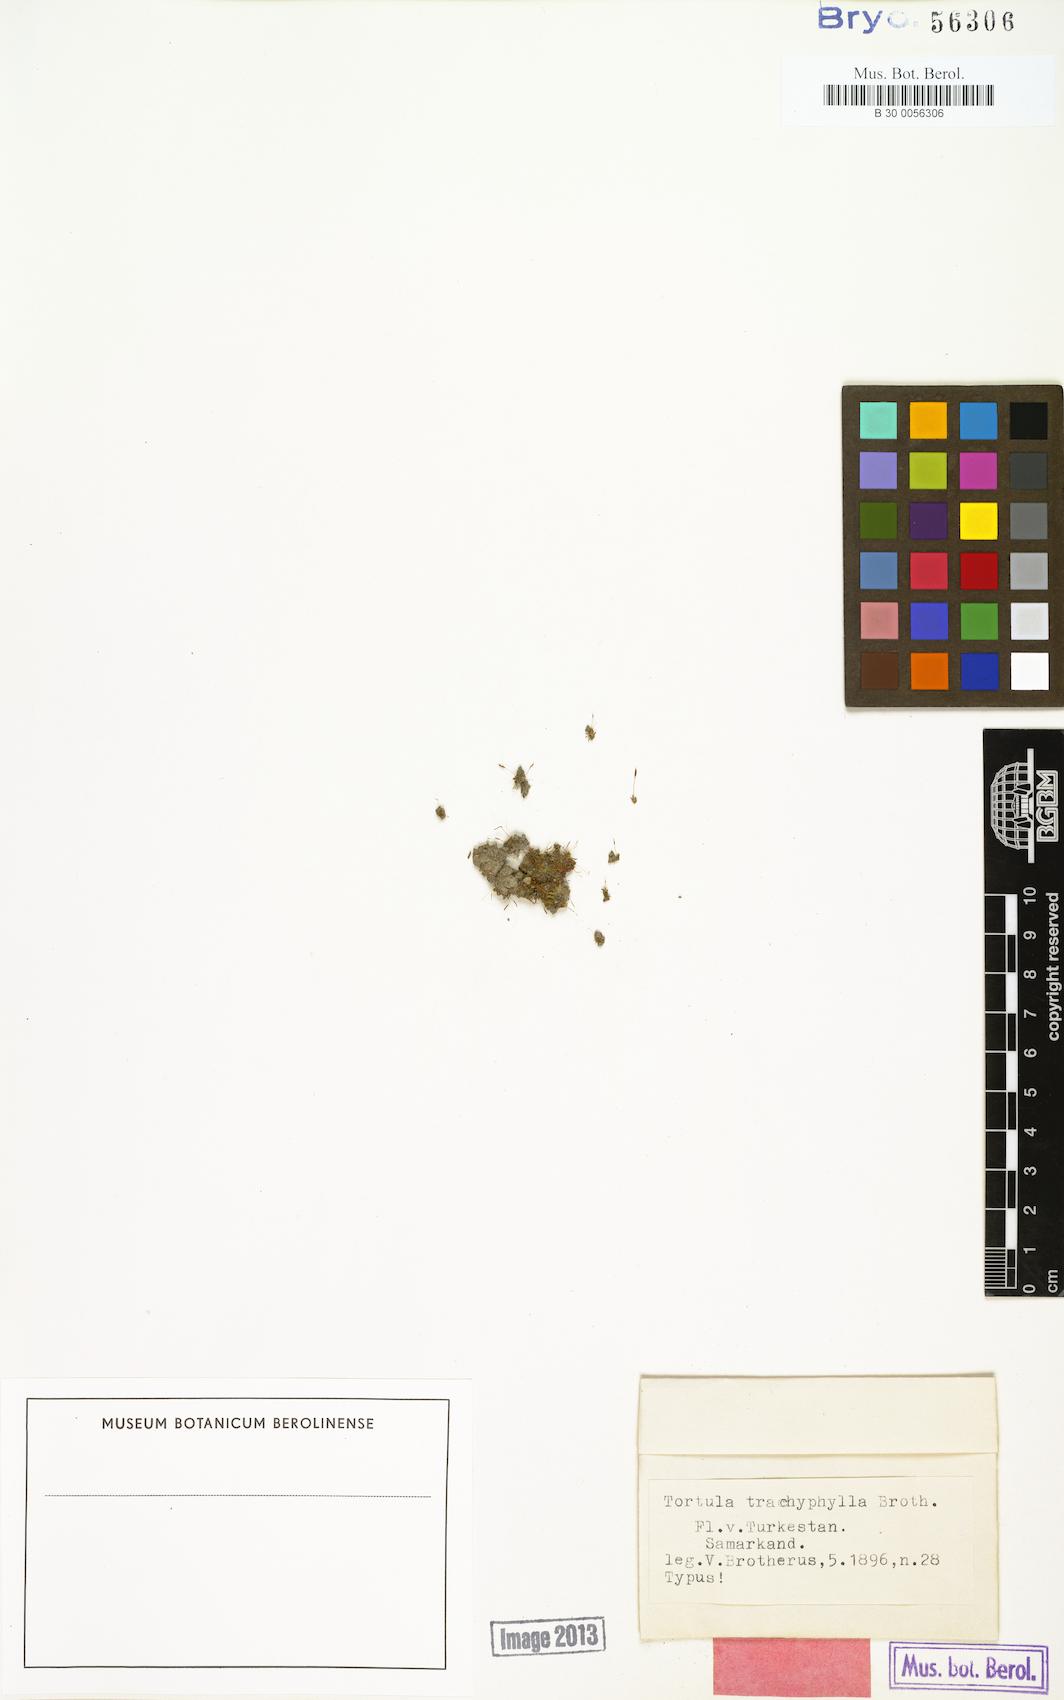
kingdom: Plantae
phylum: Bryophyta
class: Bryopsida
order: Pottiales
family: Pottiaceae
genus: Tortula
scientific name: Tortula trachyphylla
